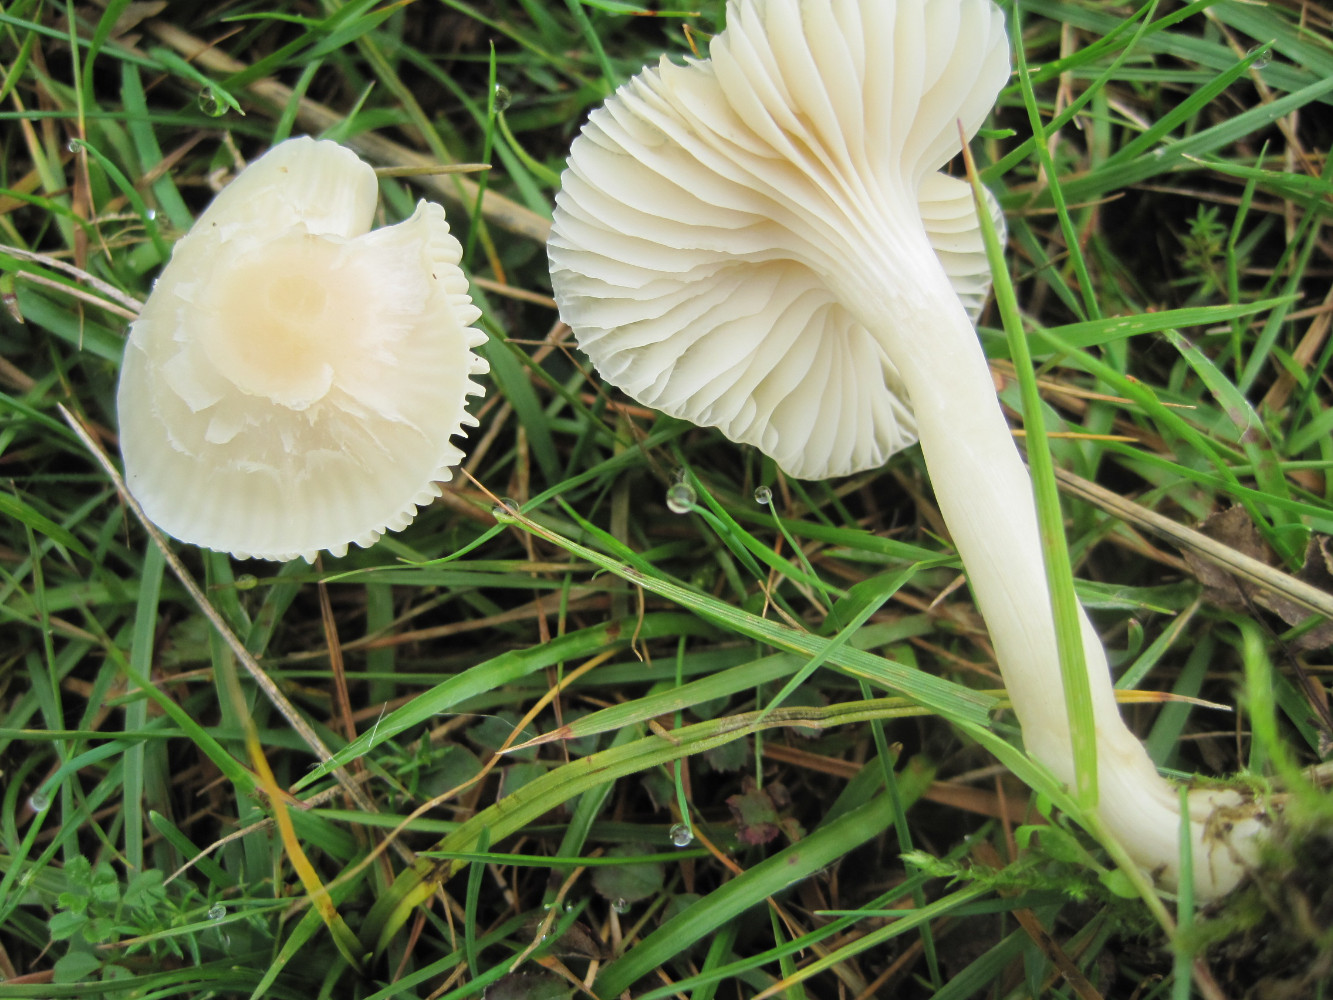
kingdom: Fungi
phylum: Basidiomycota
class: Agaricomycetes
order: Agaricales
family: Hygrophoraceae
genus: Cuphophyllus
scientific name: Cuphophyllus virgineus
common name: snehvid vokshat
